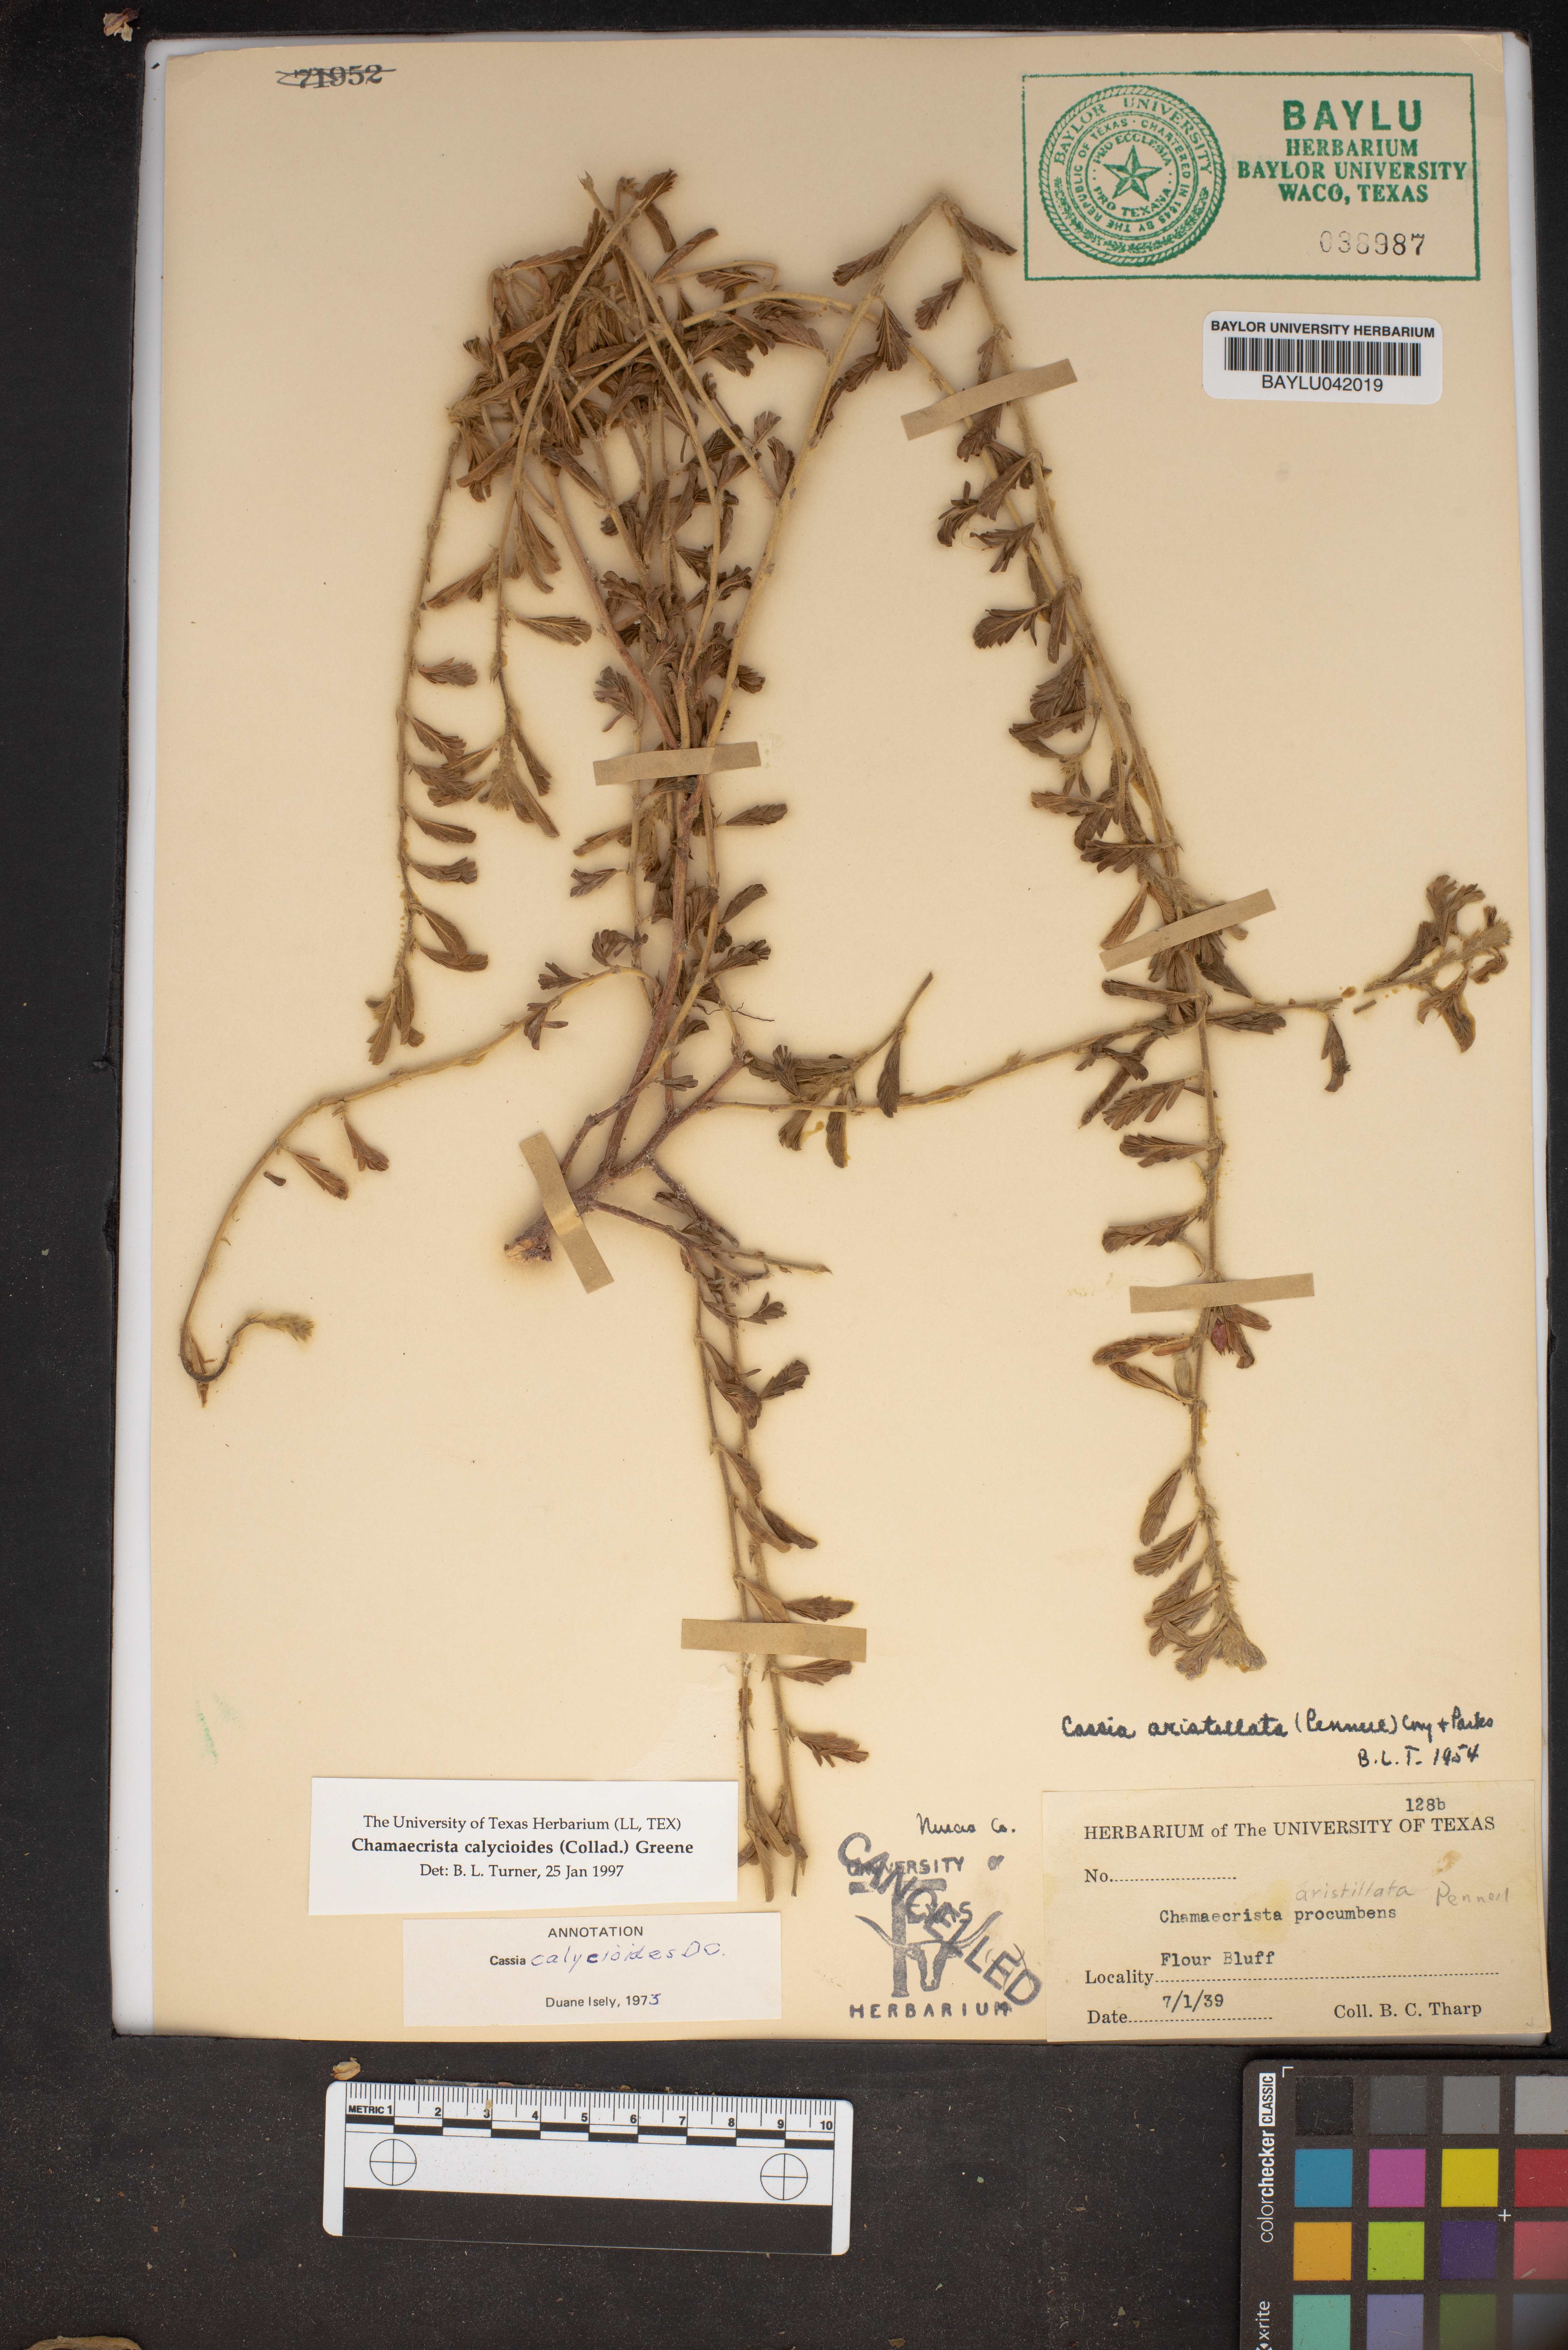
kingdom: Plantae
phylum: Tracheophyta
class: Magnoliopsida
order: Fabales
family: Fabaceae
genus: Chamaecrista
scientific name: Chamaecrista calycioides
